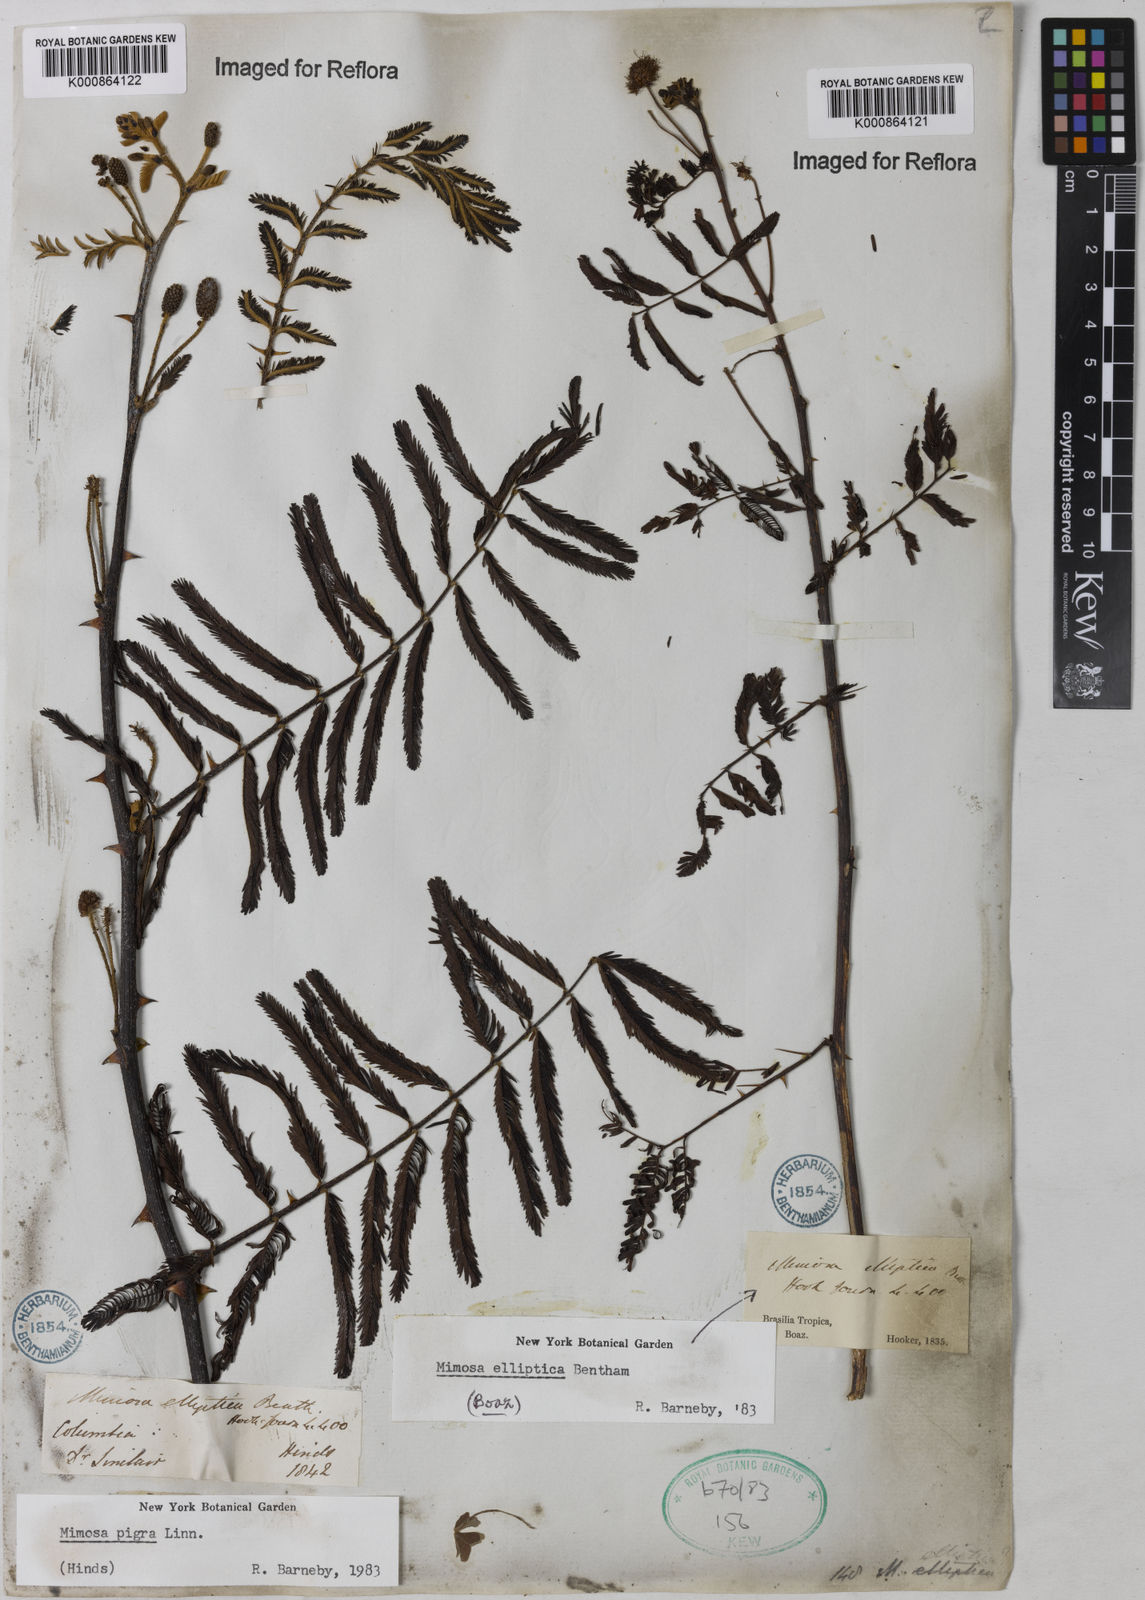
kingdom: Plantae
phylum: Tracheophyta
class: Magnoliopsida
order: Fabales
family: Fabaceae
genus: Mimosa
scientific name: Mimosa elliptica
